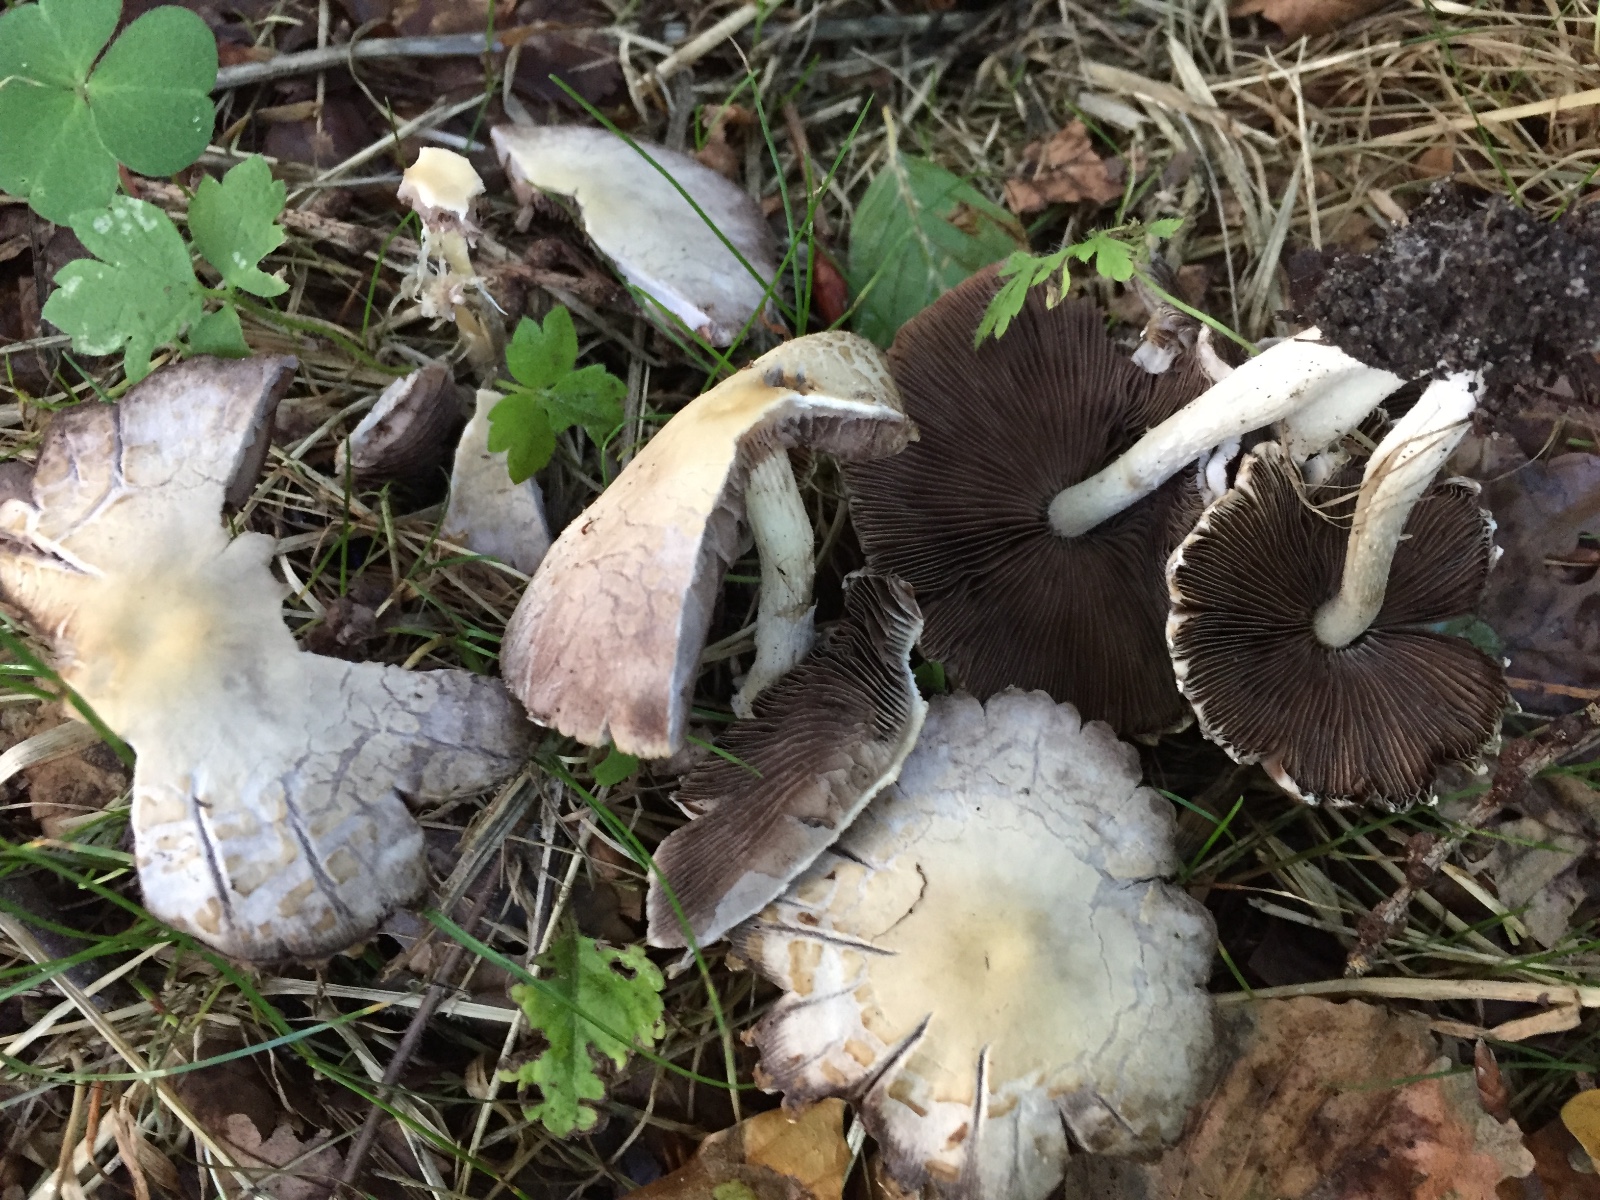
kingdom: Fungi
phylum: Basidiomycota
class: Agaricomycetes
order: Agaricales
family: Psathyrellaceae
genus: Candolleomyces
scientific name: Candolleomyces candolleanus
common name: Candolles mørkhat
